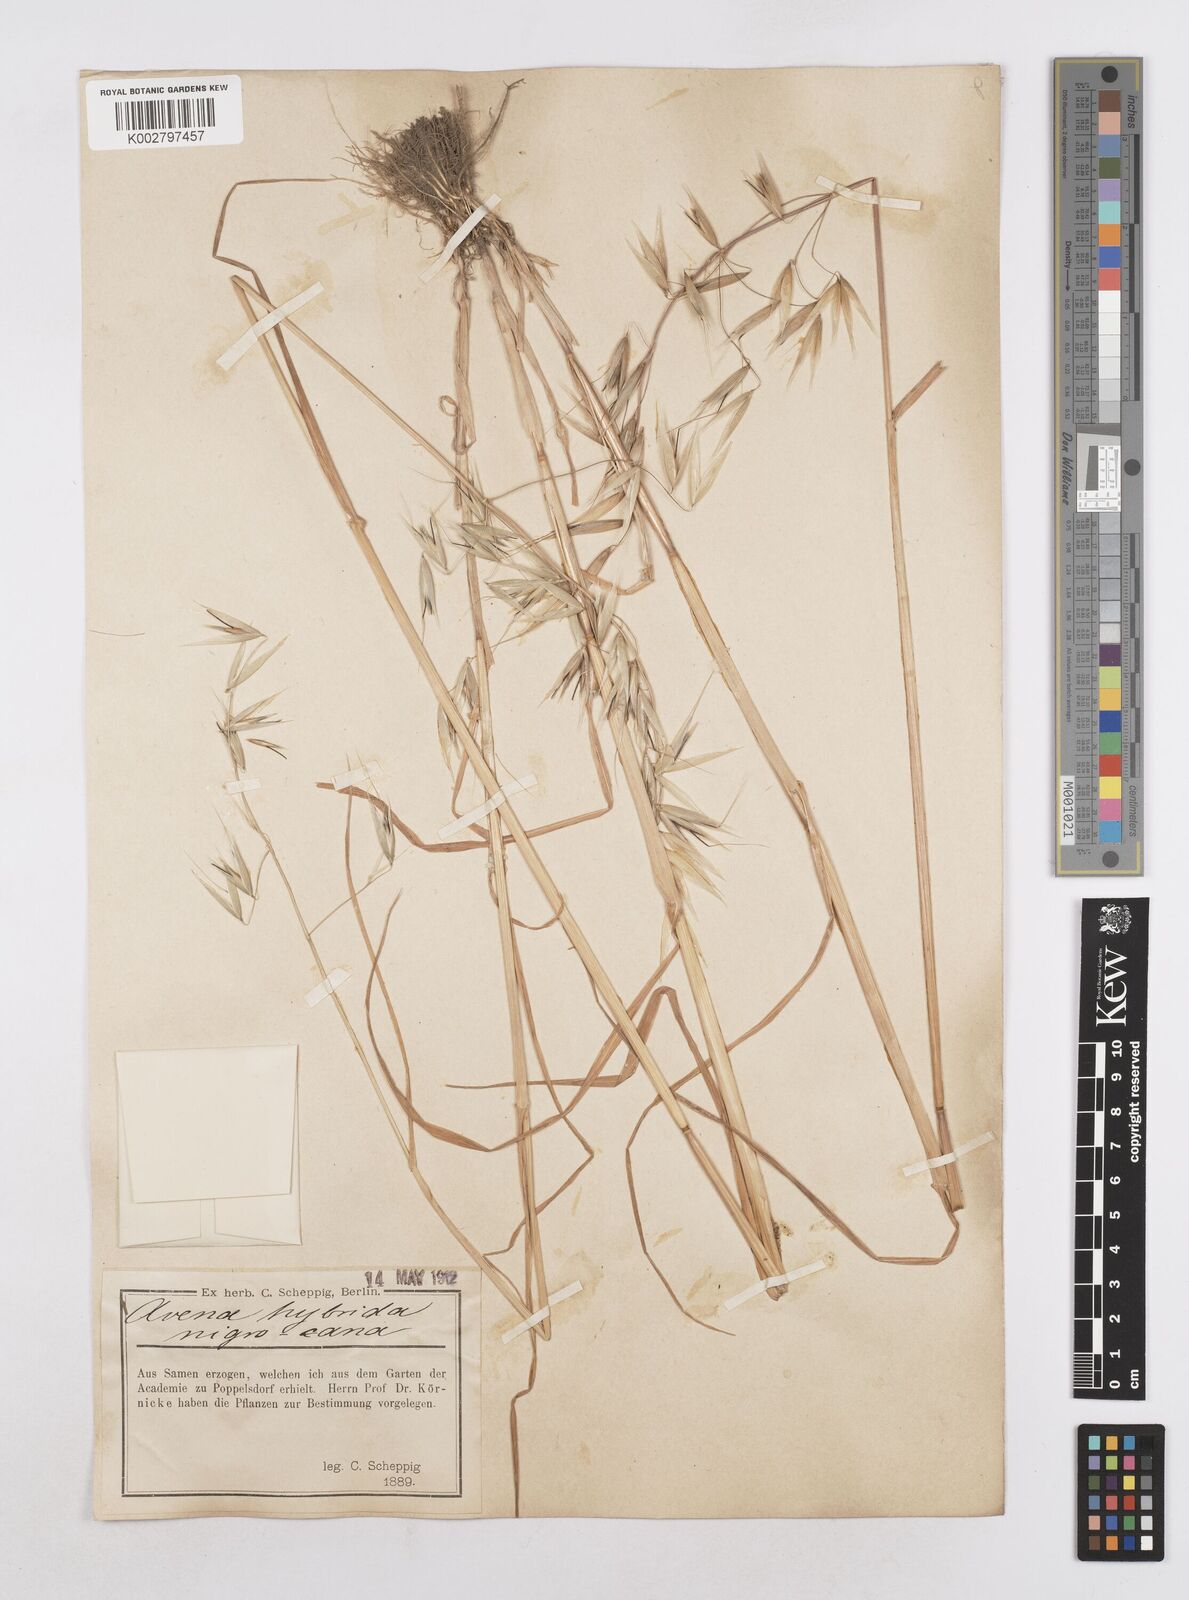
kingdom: Plantae
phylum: Tracheophyta
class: Liliopsida
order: Poales
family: Poaceae
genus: Avena
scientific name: Avena fatua
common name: Wild oat
